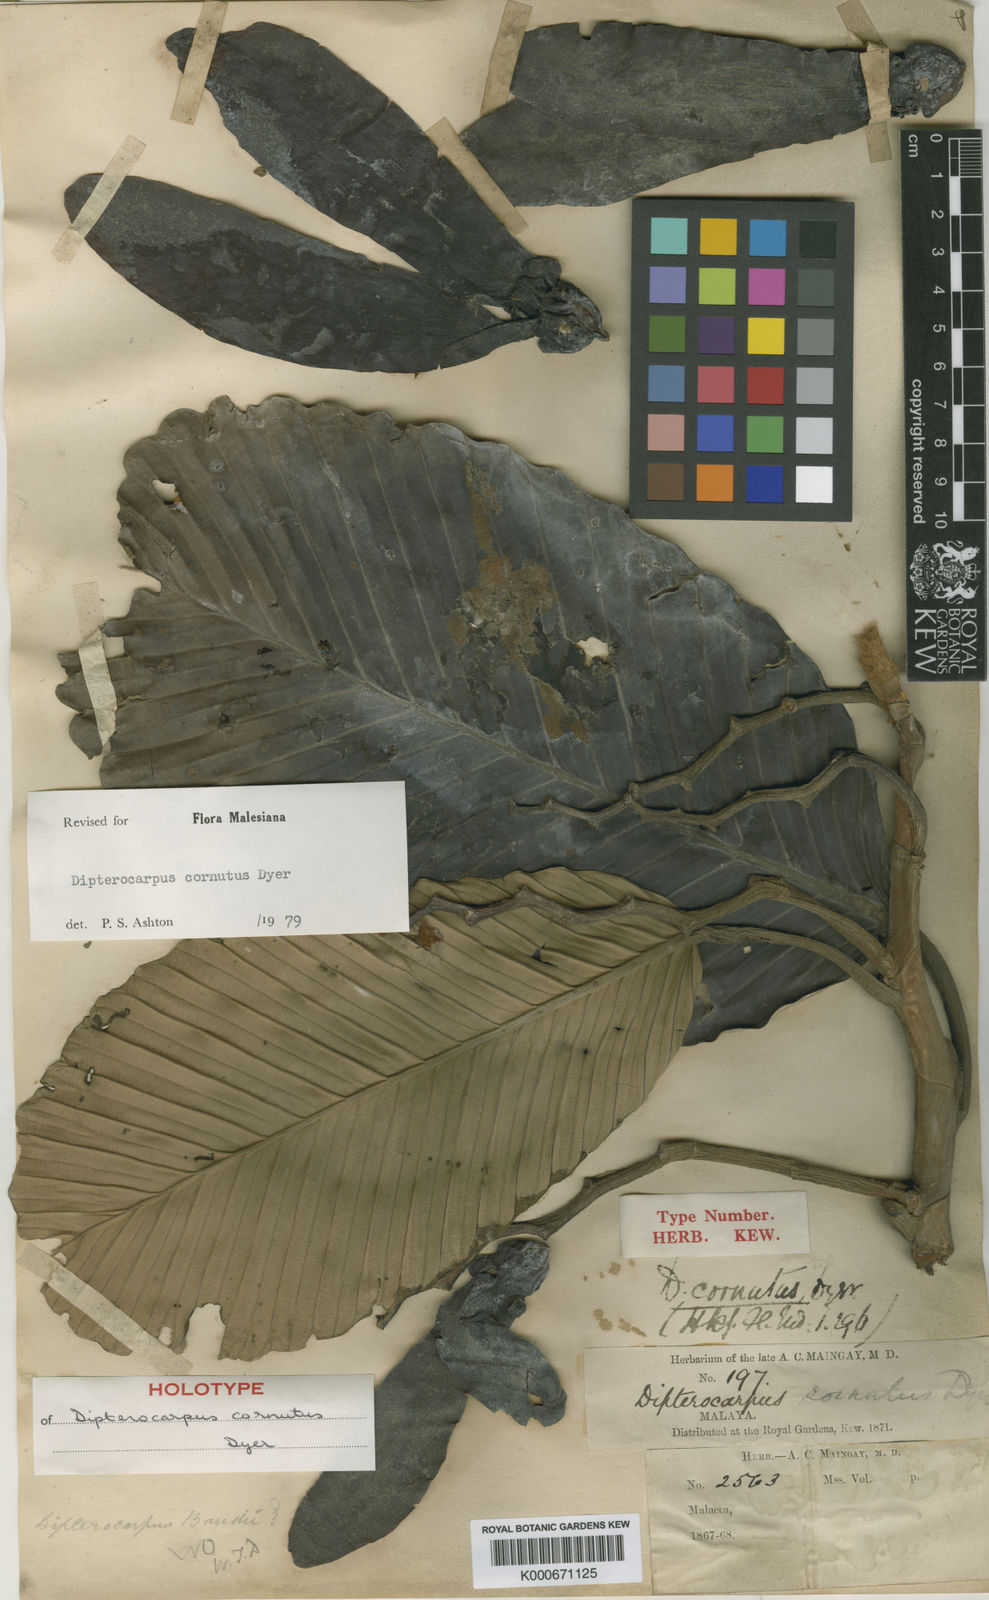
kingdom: Plantae
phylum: Tracheophyta
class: Magnoliopsida
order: Malvales
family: Dipterocarpaceae
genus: Dipterocarpus
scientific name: Dipterocarpus cornutus
